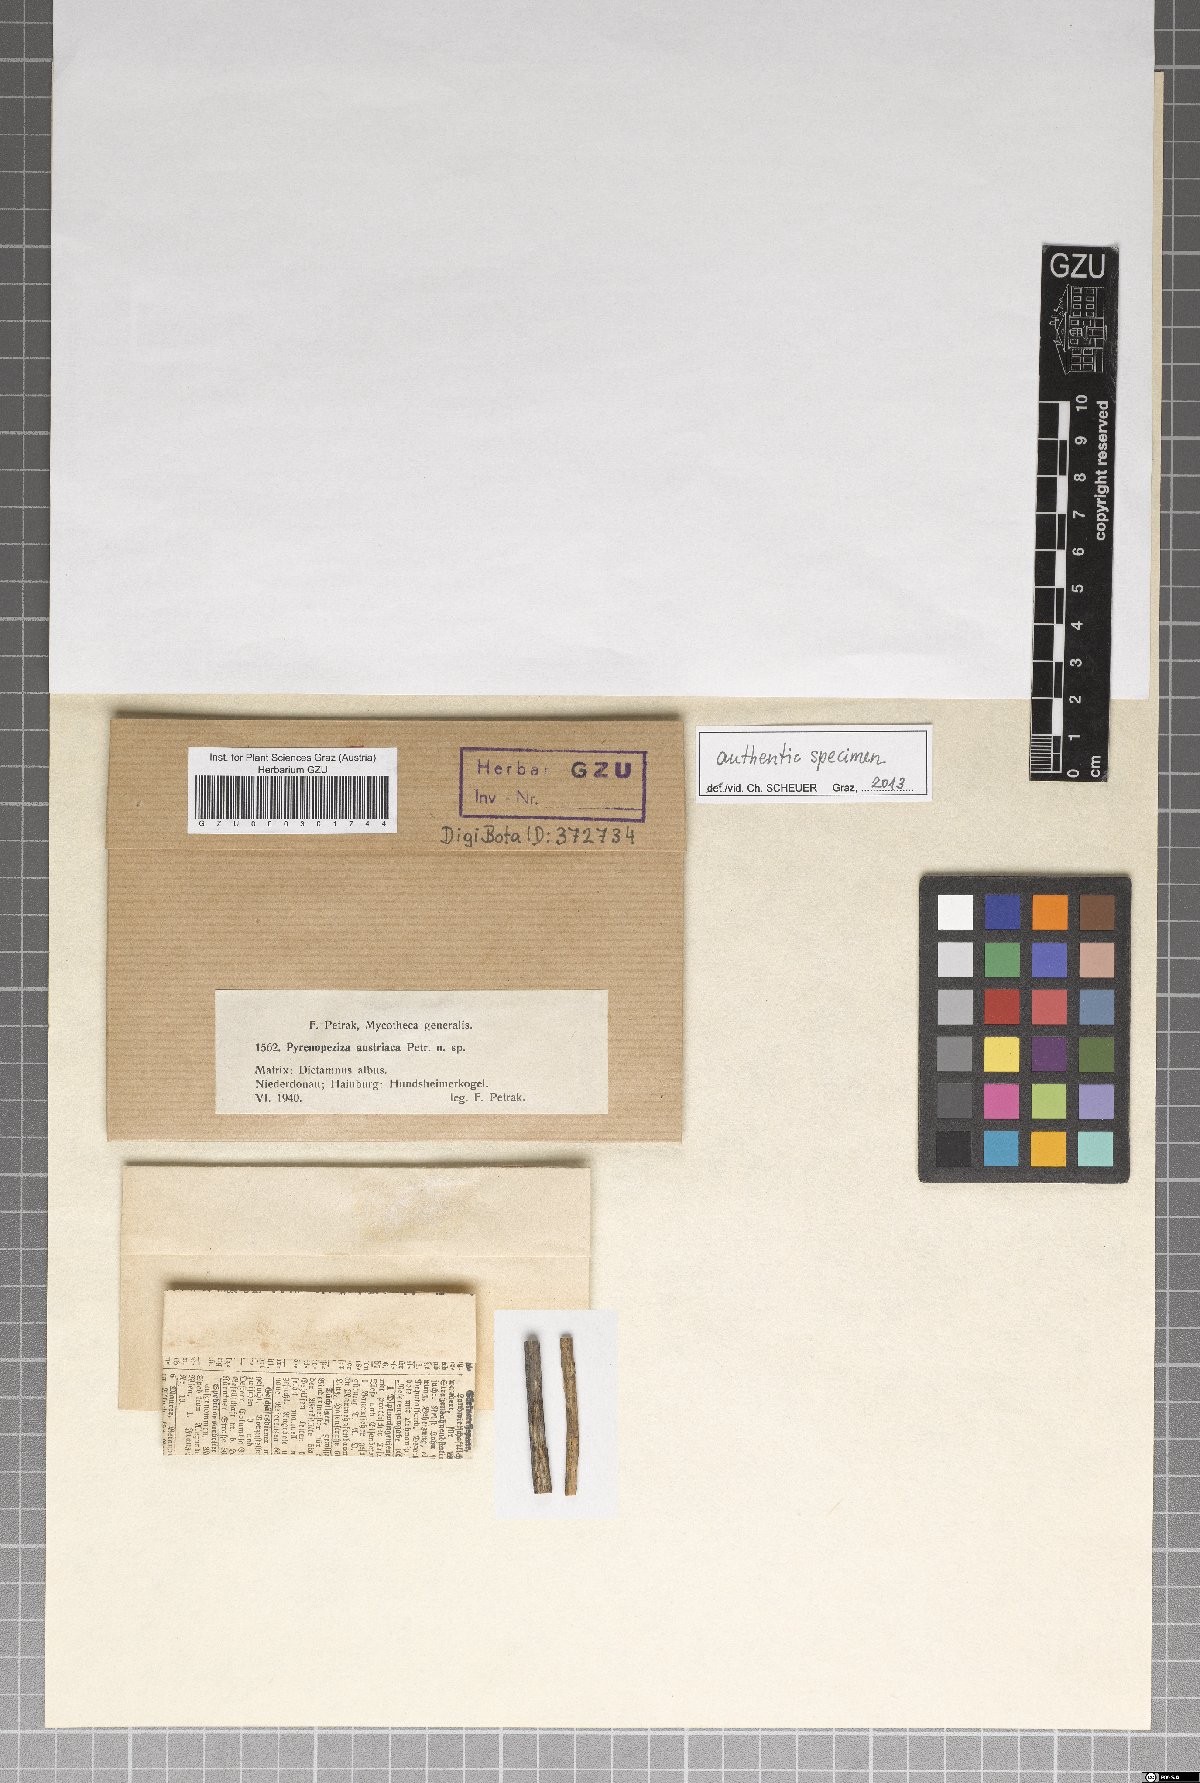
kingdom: Fungi
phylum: Ascomycota
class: Leotiomycetes
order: Helotiales
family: Ploettnerulaceae
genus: Pyrenopeziza
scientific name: Pyrenopeziza austriaca
